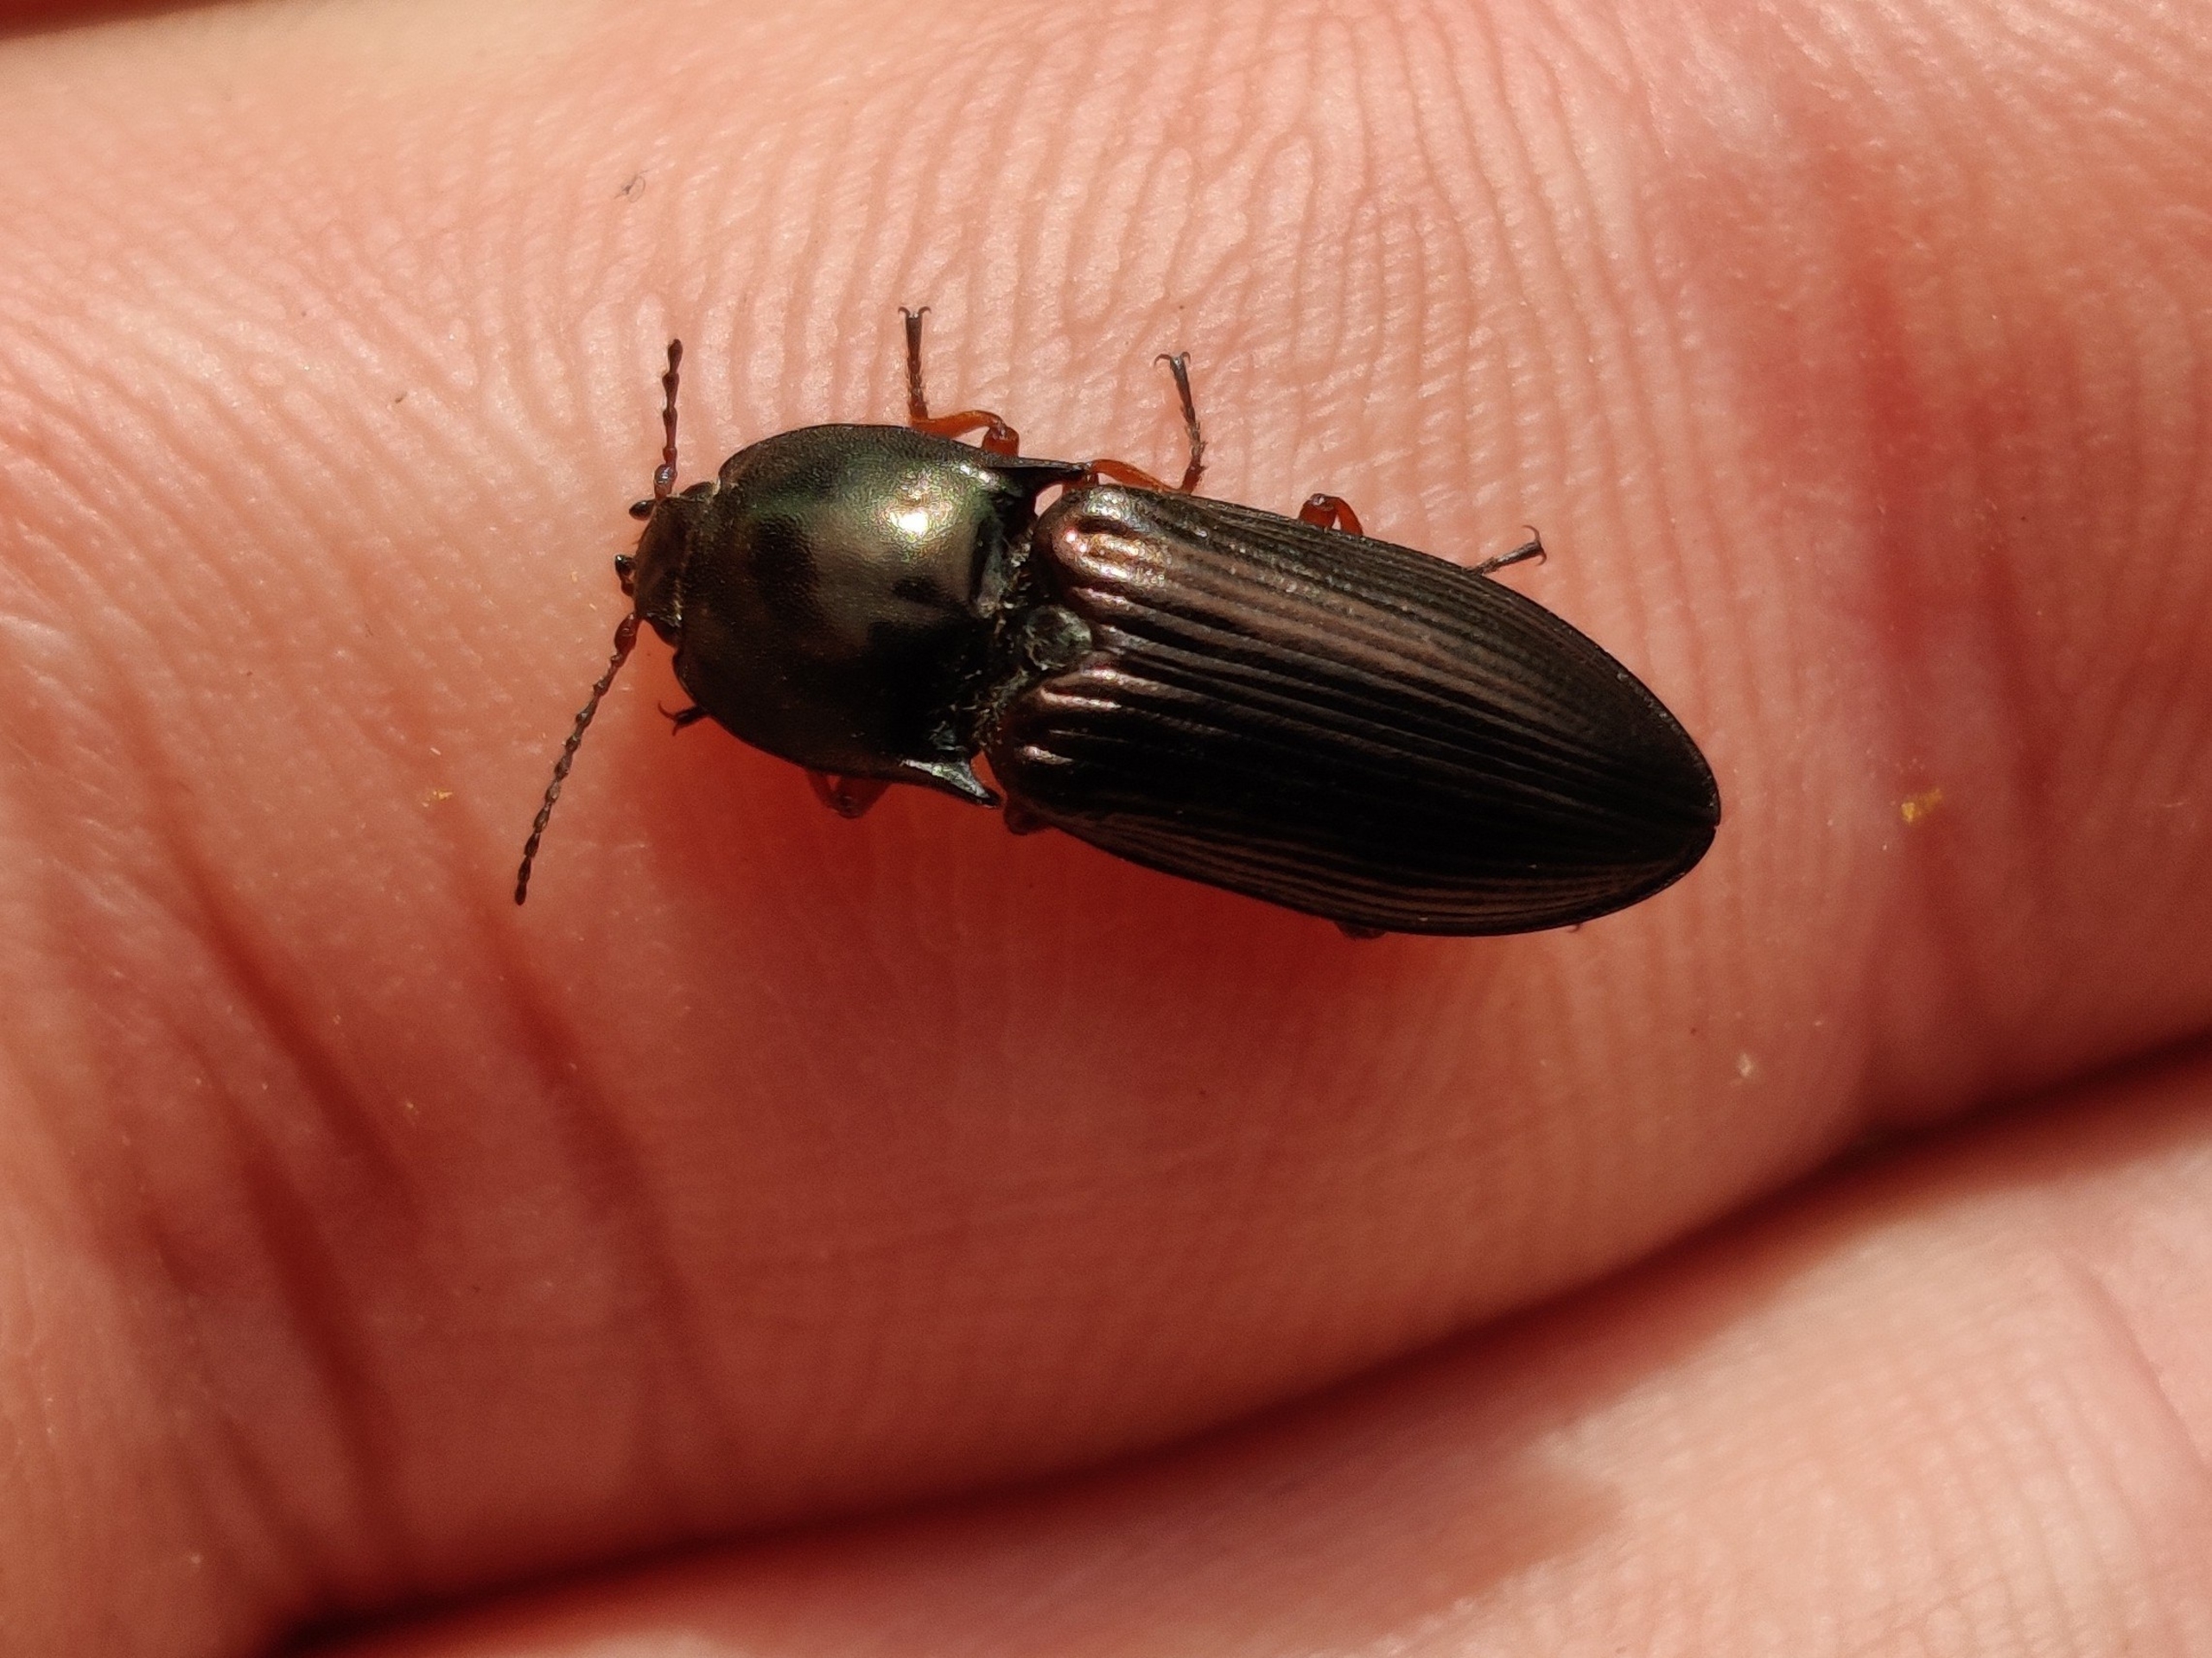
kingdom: Animalia
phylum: Arthropoda
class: Insecta
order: Coleoptera
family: Elateridae
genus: Selatosomus
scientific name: Selatosomus aeneus
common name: Kobbersmælder
